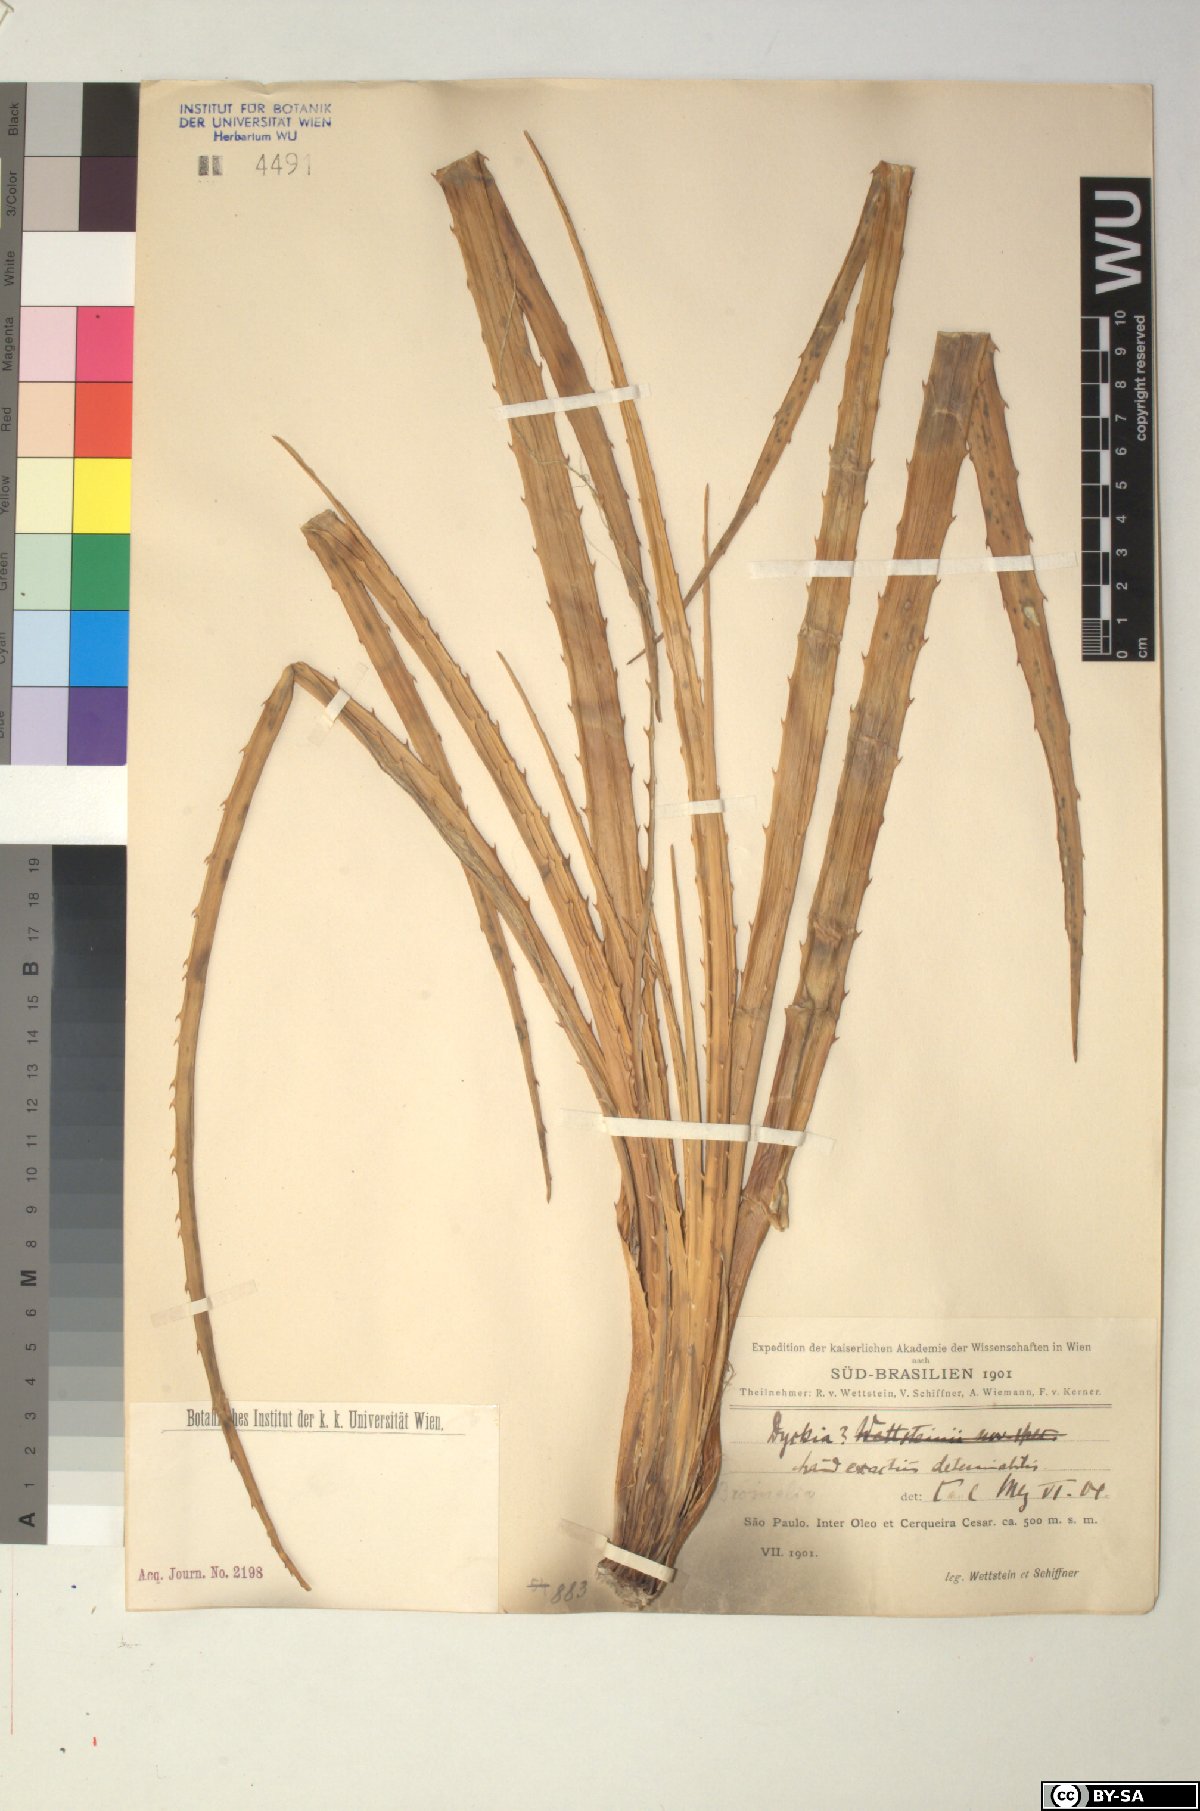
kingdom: Plantae
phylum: Tracheophyta
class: Liliopsida
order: Poales
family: Bromeliaceae
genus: Dyckia
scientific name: Dyckia
